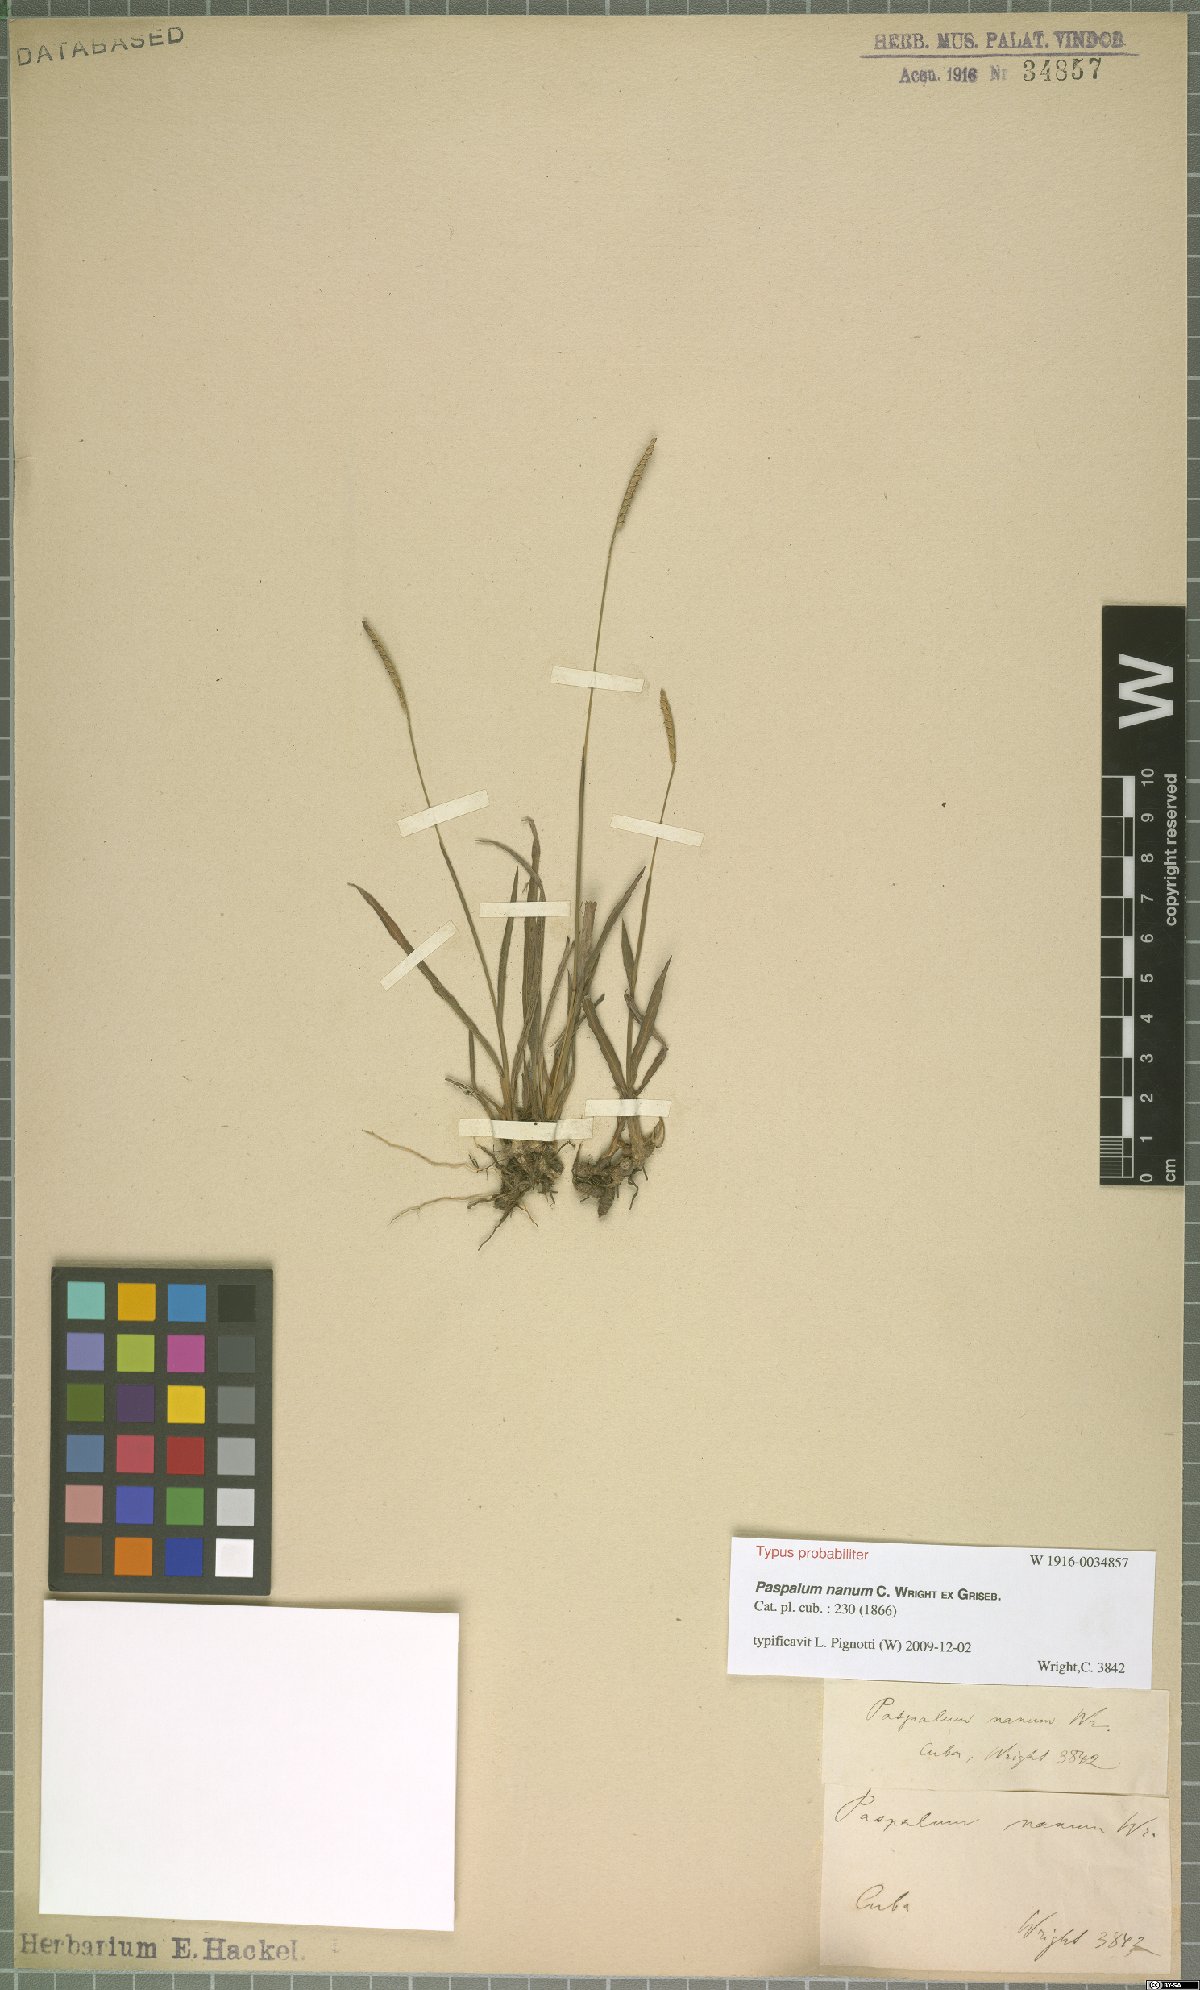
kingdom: Plantae
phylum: Tracheophyta
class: Liliopsida
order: Poales
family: Poaceae
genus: Paspalum
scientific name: Paspalum nanum
